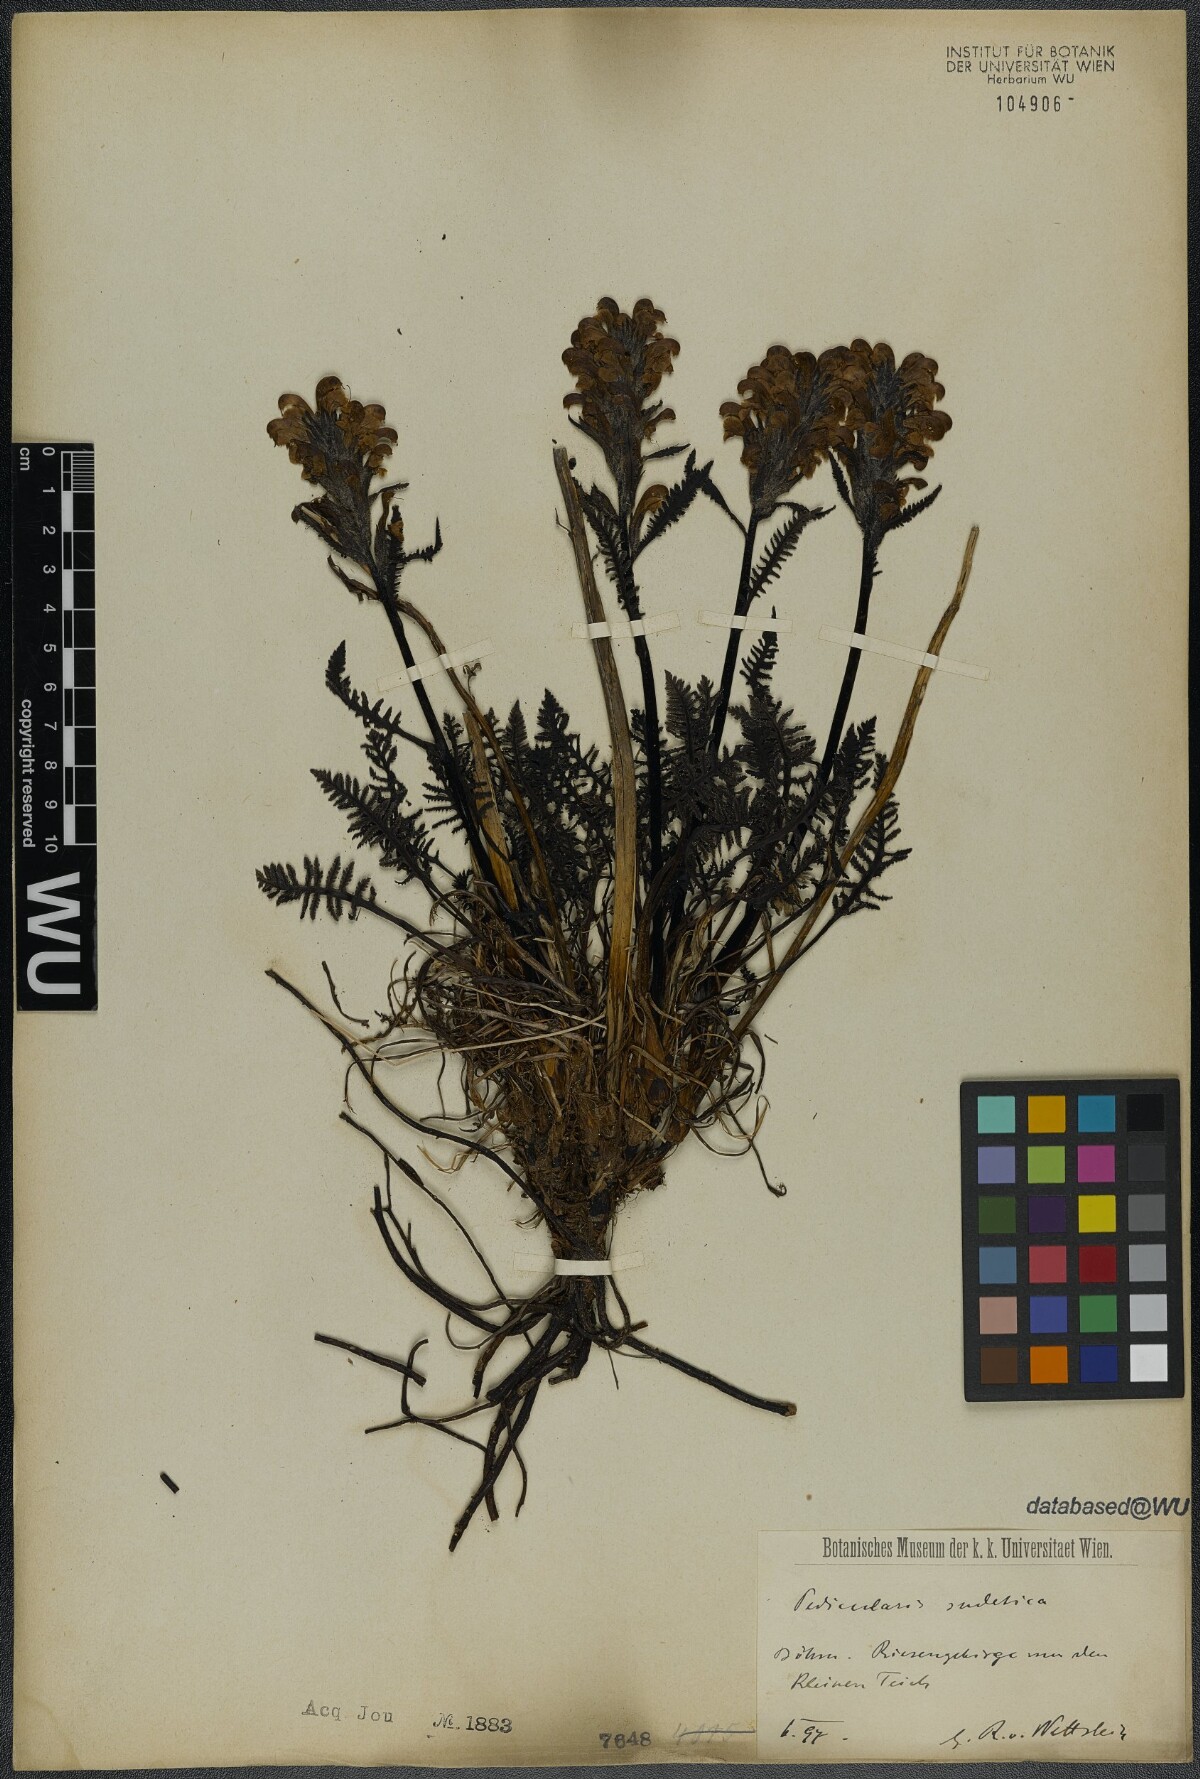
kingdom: Plantae
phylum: Tracheophyta
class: Magnoliopsida
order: Lamiales
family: Orobanchaceae
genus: Pedicularis
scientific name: Pedicularis sudetica
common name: Sudeten lousewort
